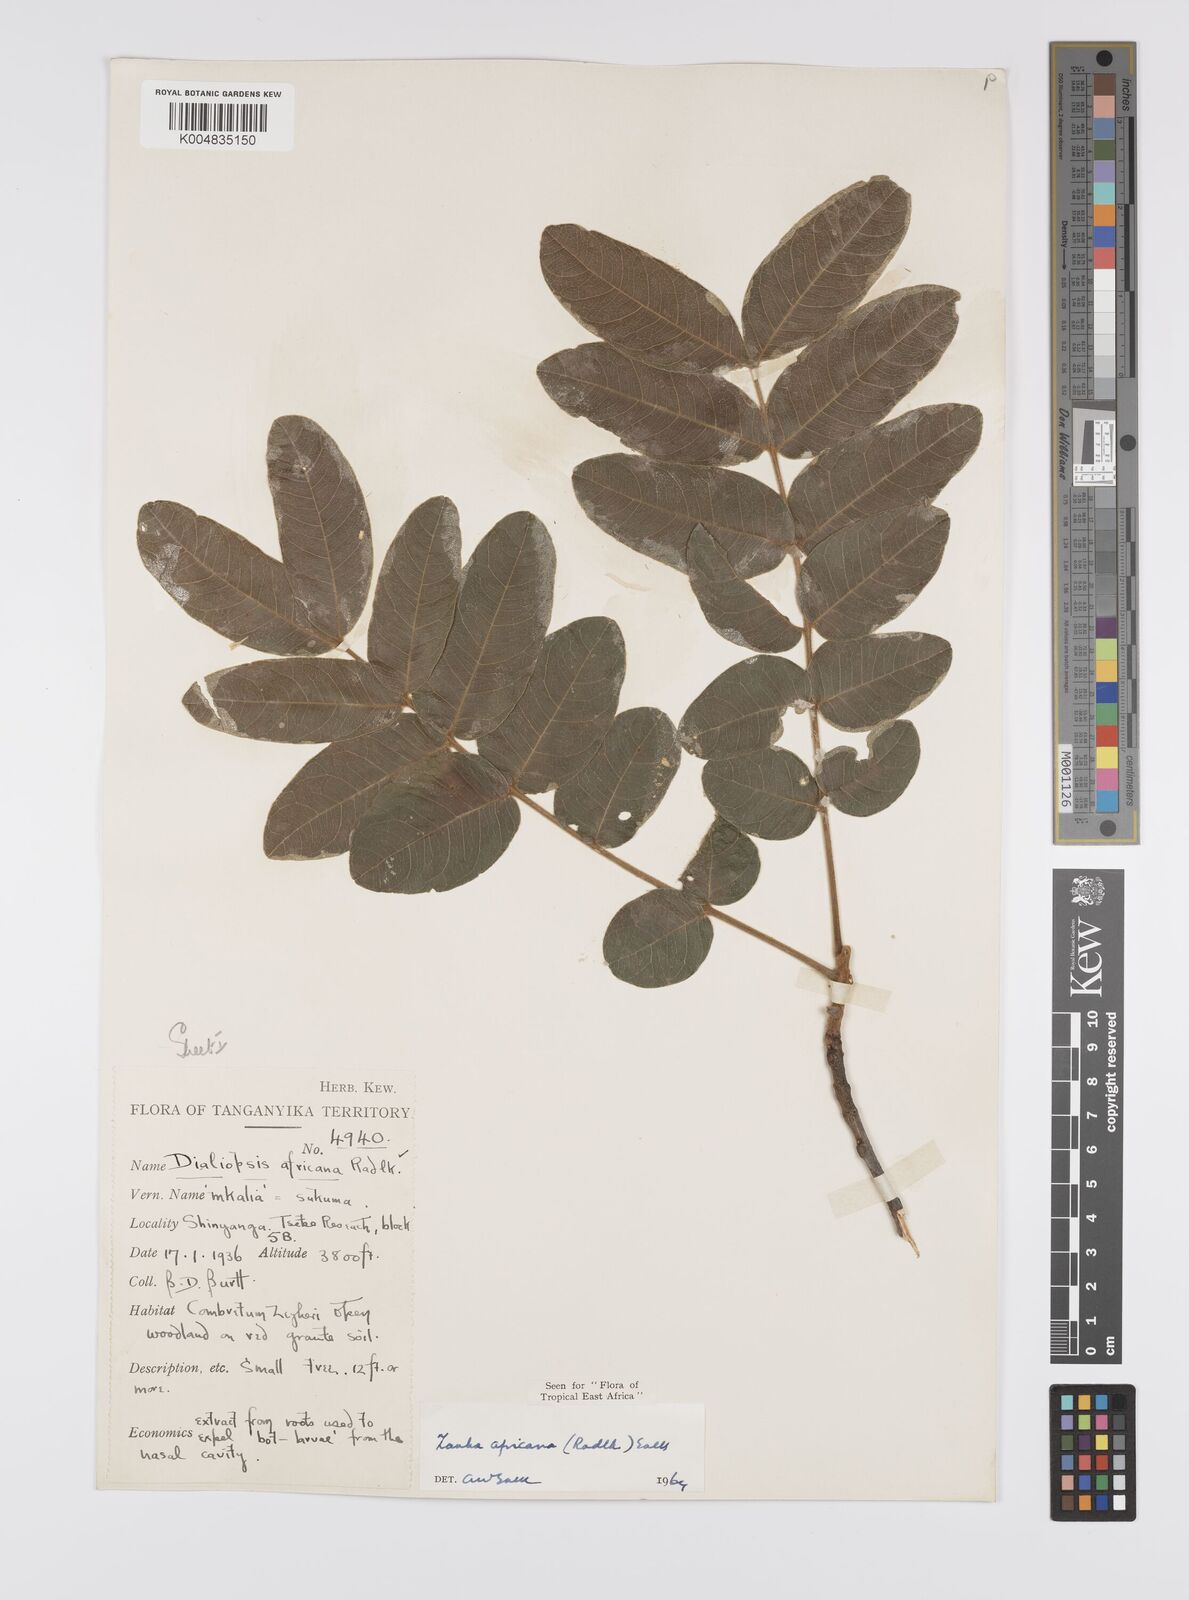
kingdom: Plantae
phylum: Tracheophyta
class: Magnoliopsida
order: Sapindales
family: Sapindaceae
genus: Zanha
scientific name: Zanha africana
